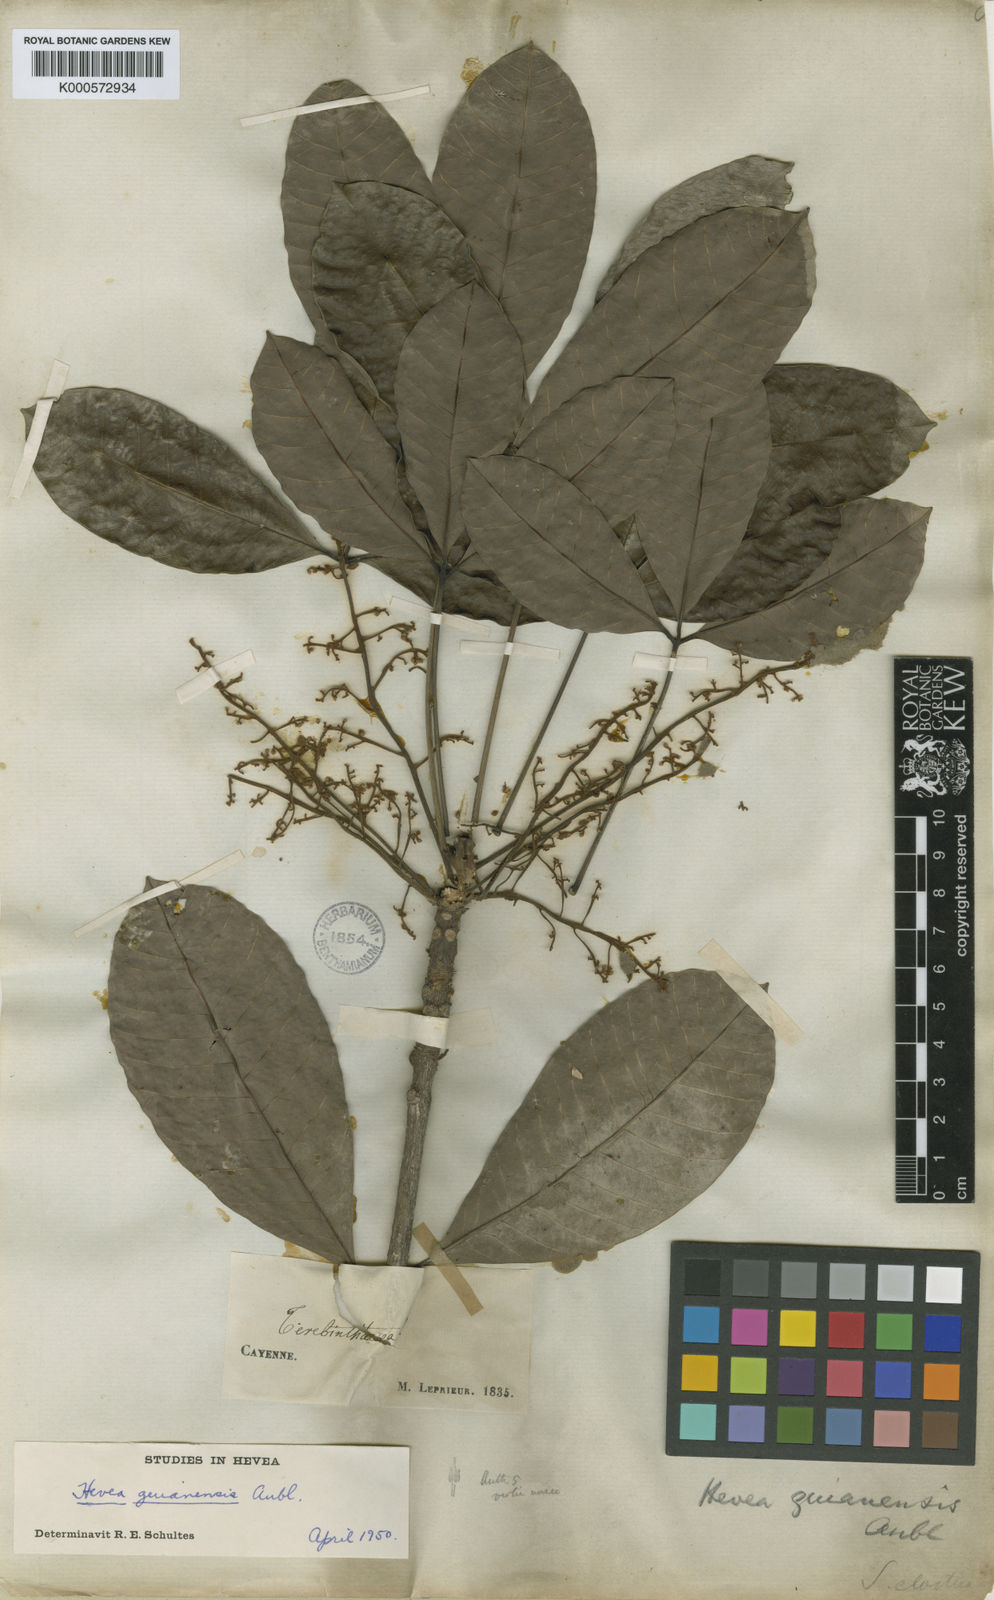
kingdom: Plantae
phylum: Tracheophyta
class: Magnoliopsida
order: Malpighiales
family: Euphorbiaceae
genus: Hevea
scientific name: Hevea guianensis
